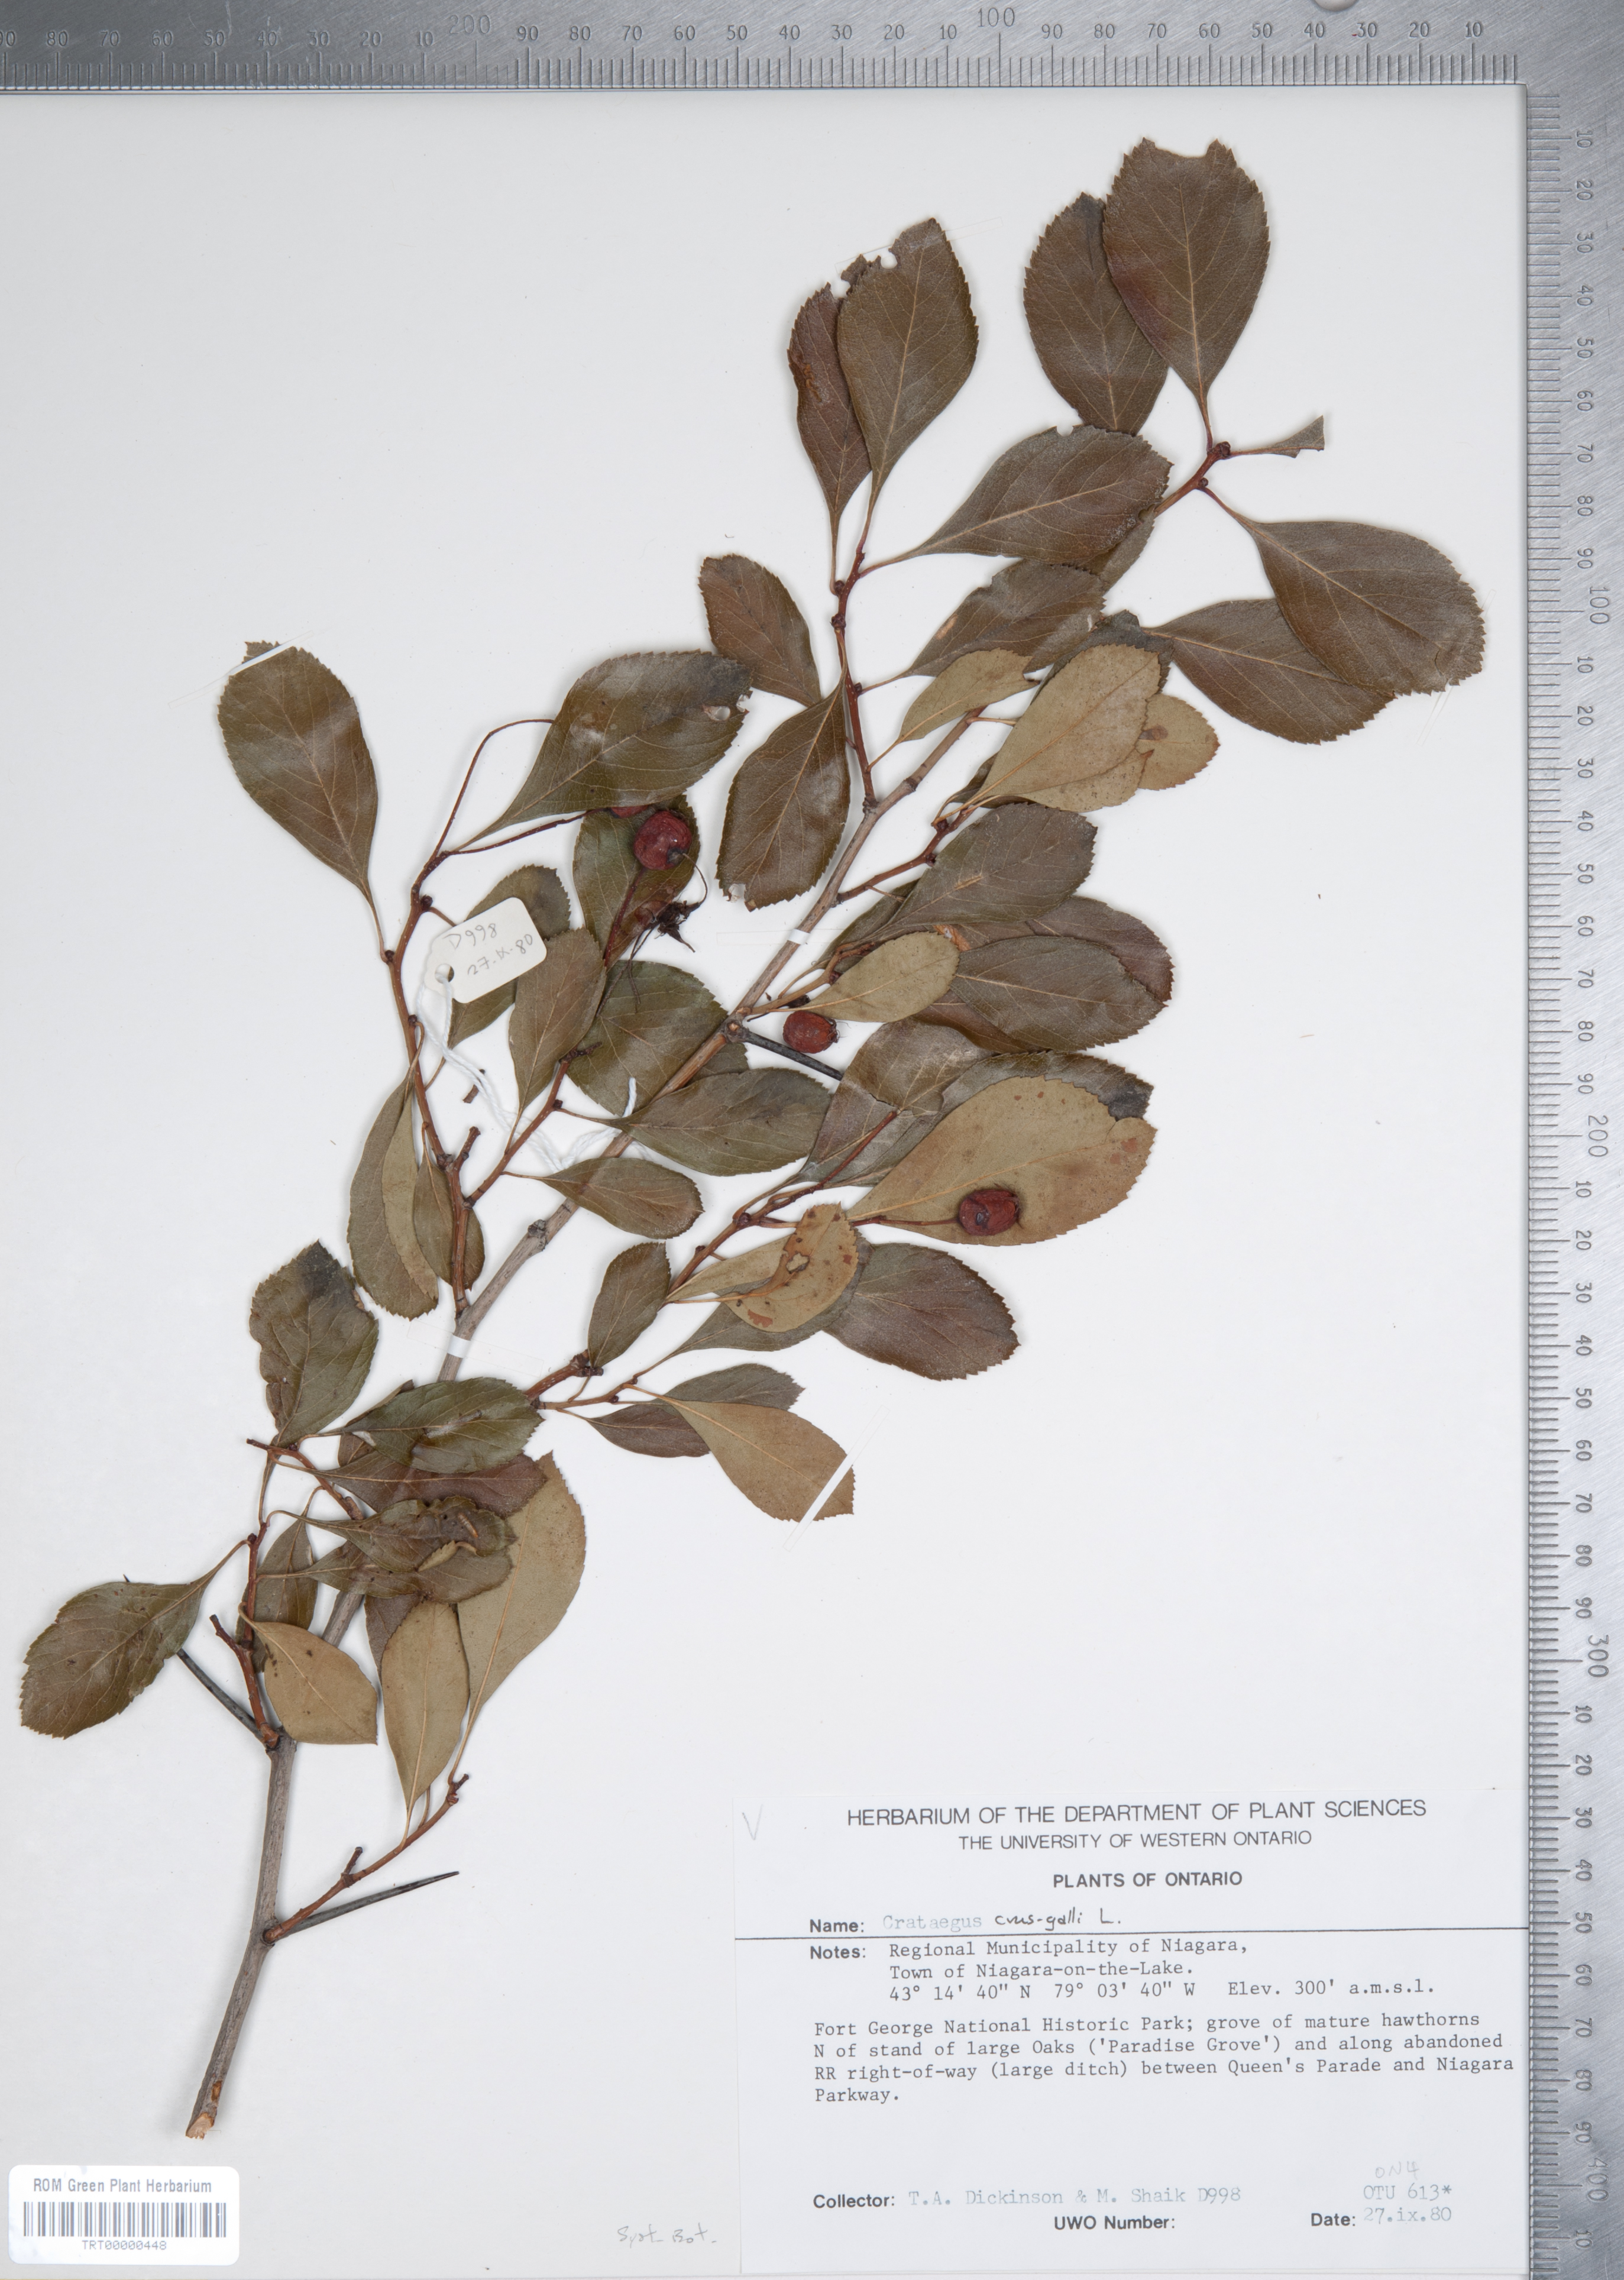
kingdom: Plantae
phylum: Tracheophyta
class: Magnoliopsida
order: Rosales
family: Rosaceae
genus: Crataegus
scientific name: Crataegus crus-galli
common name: Cockspurthorn
